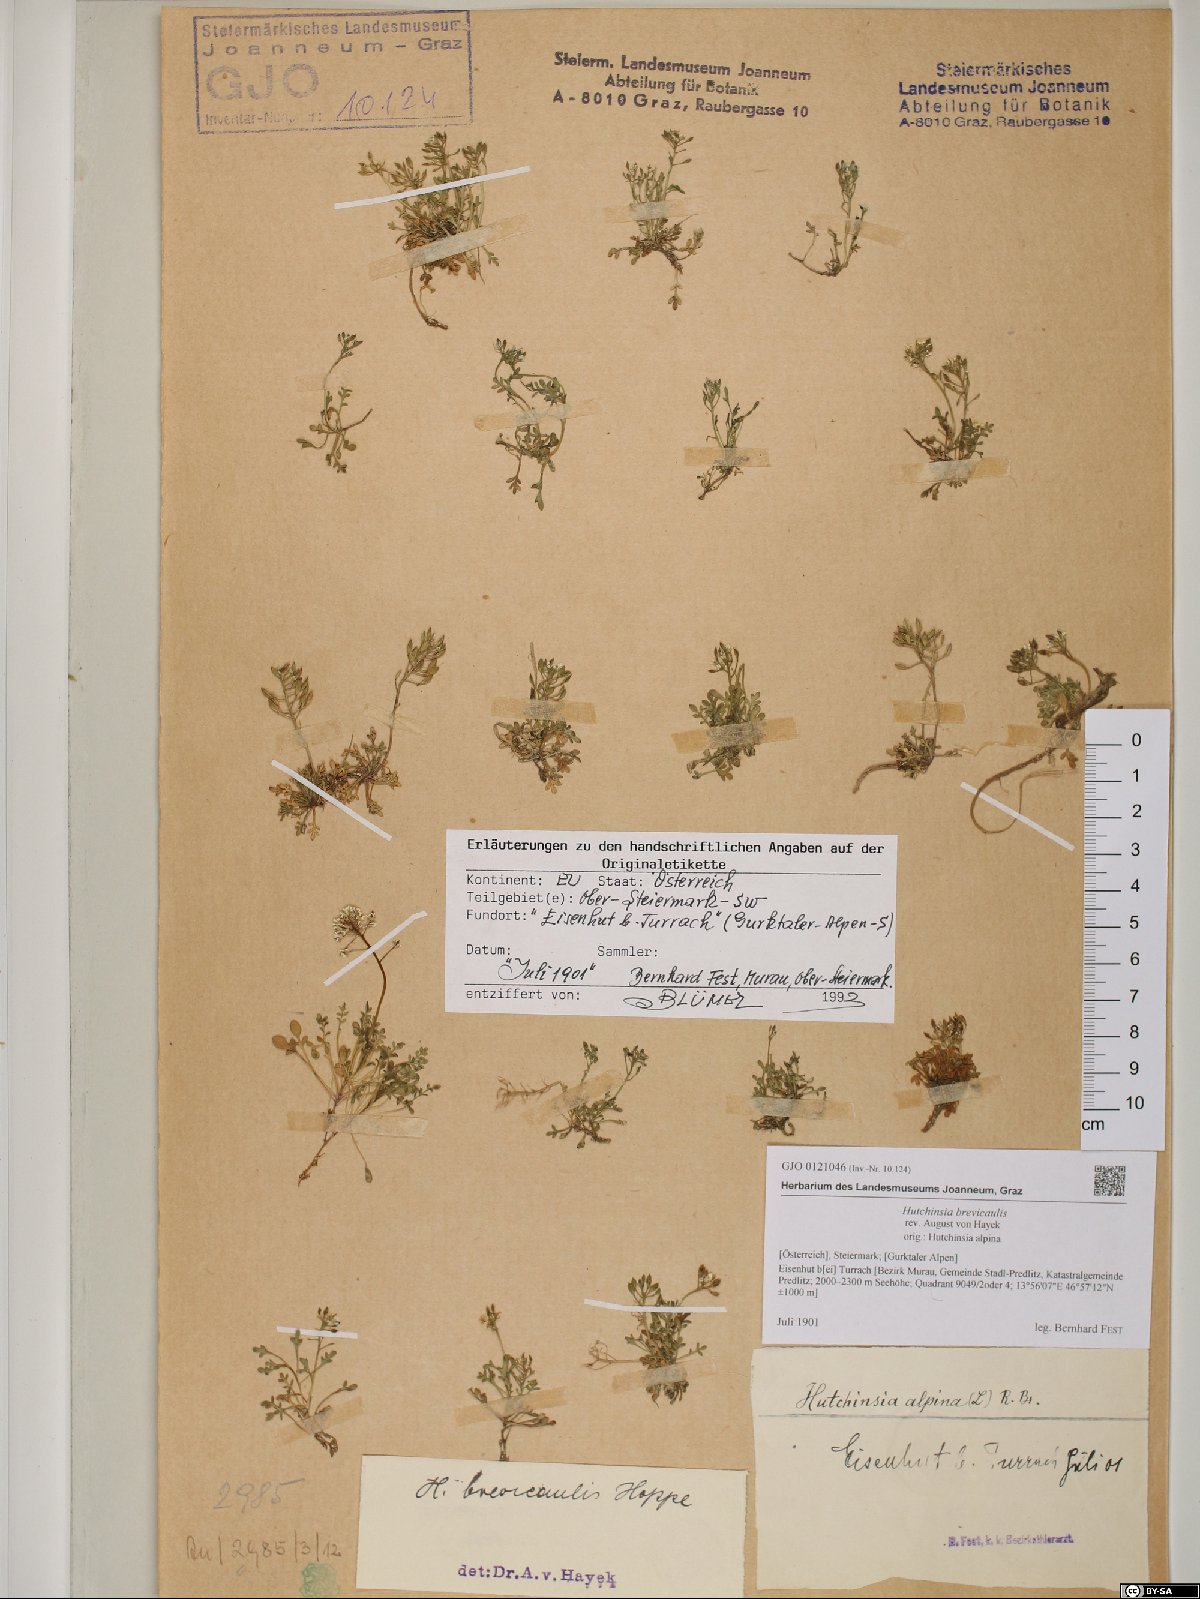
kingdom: Plantae
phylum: Tracheophyta
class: Magnoliopsida
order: Brassicales
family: Brassicaceae
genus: Hornungia
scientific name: Hornungia alpina
